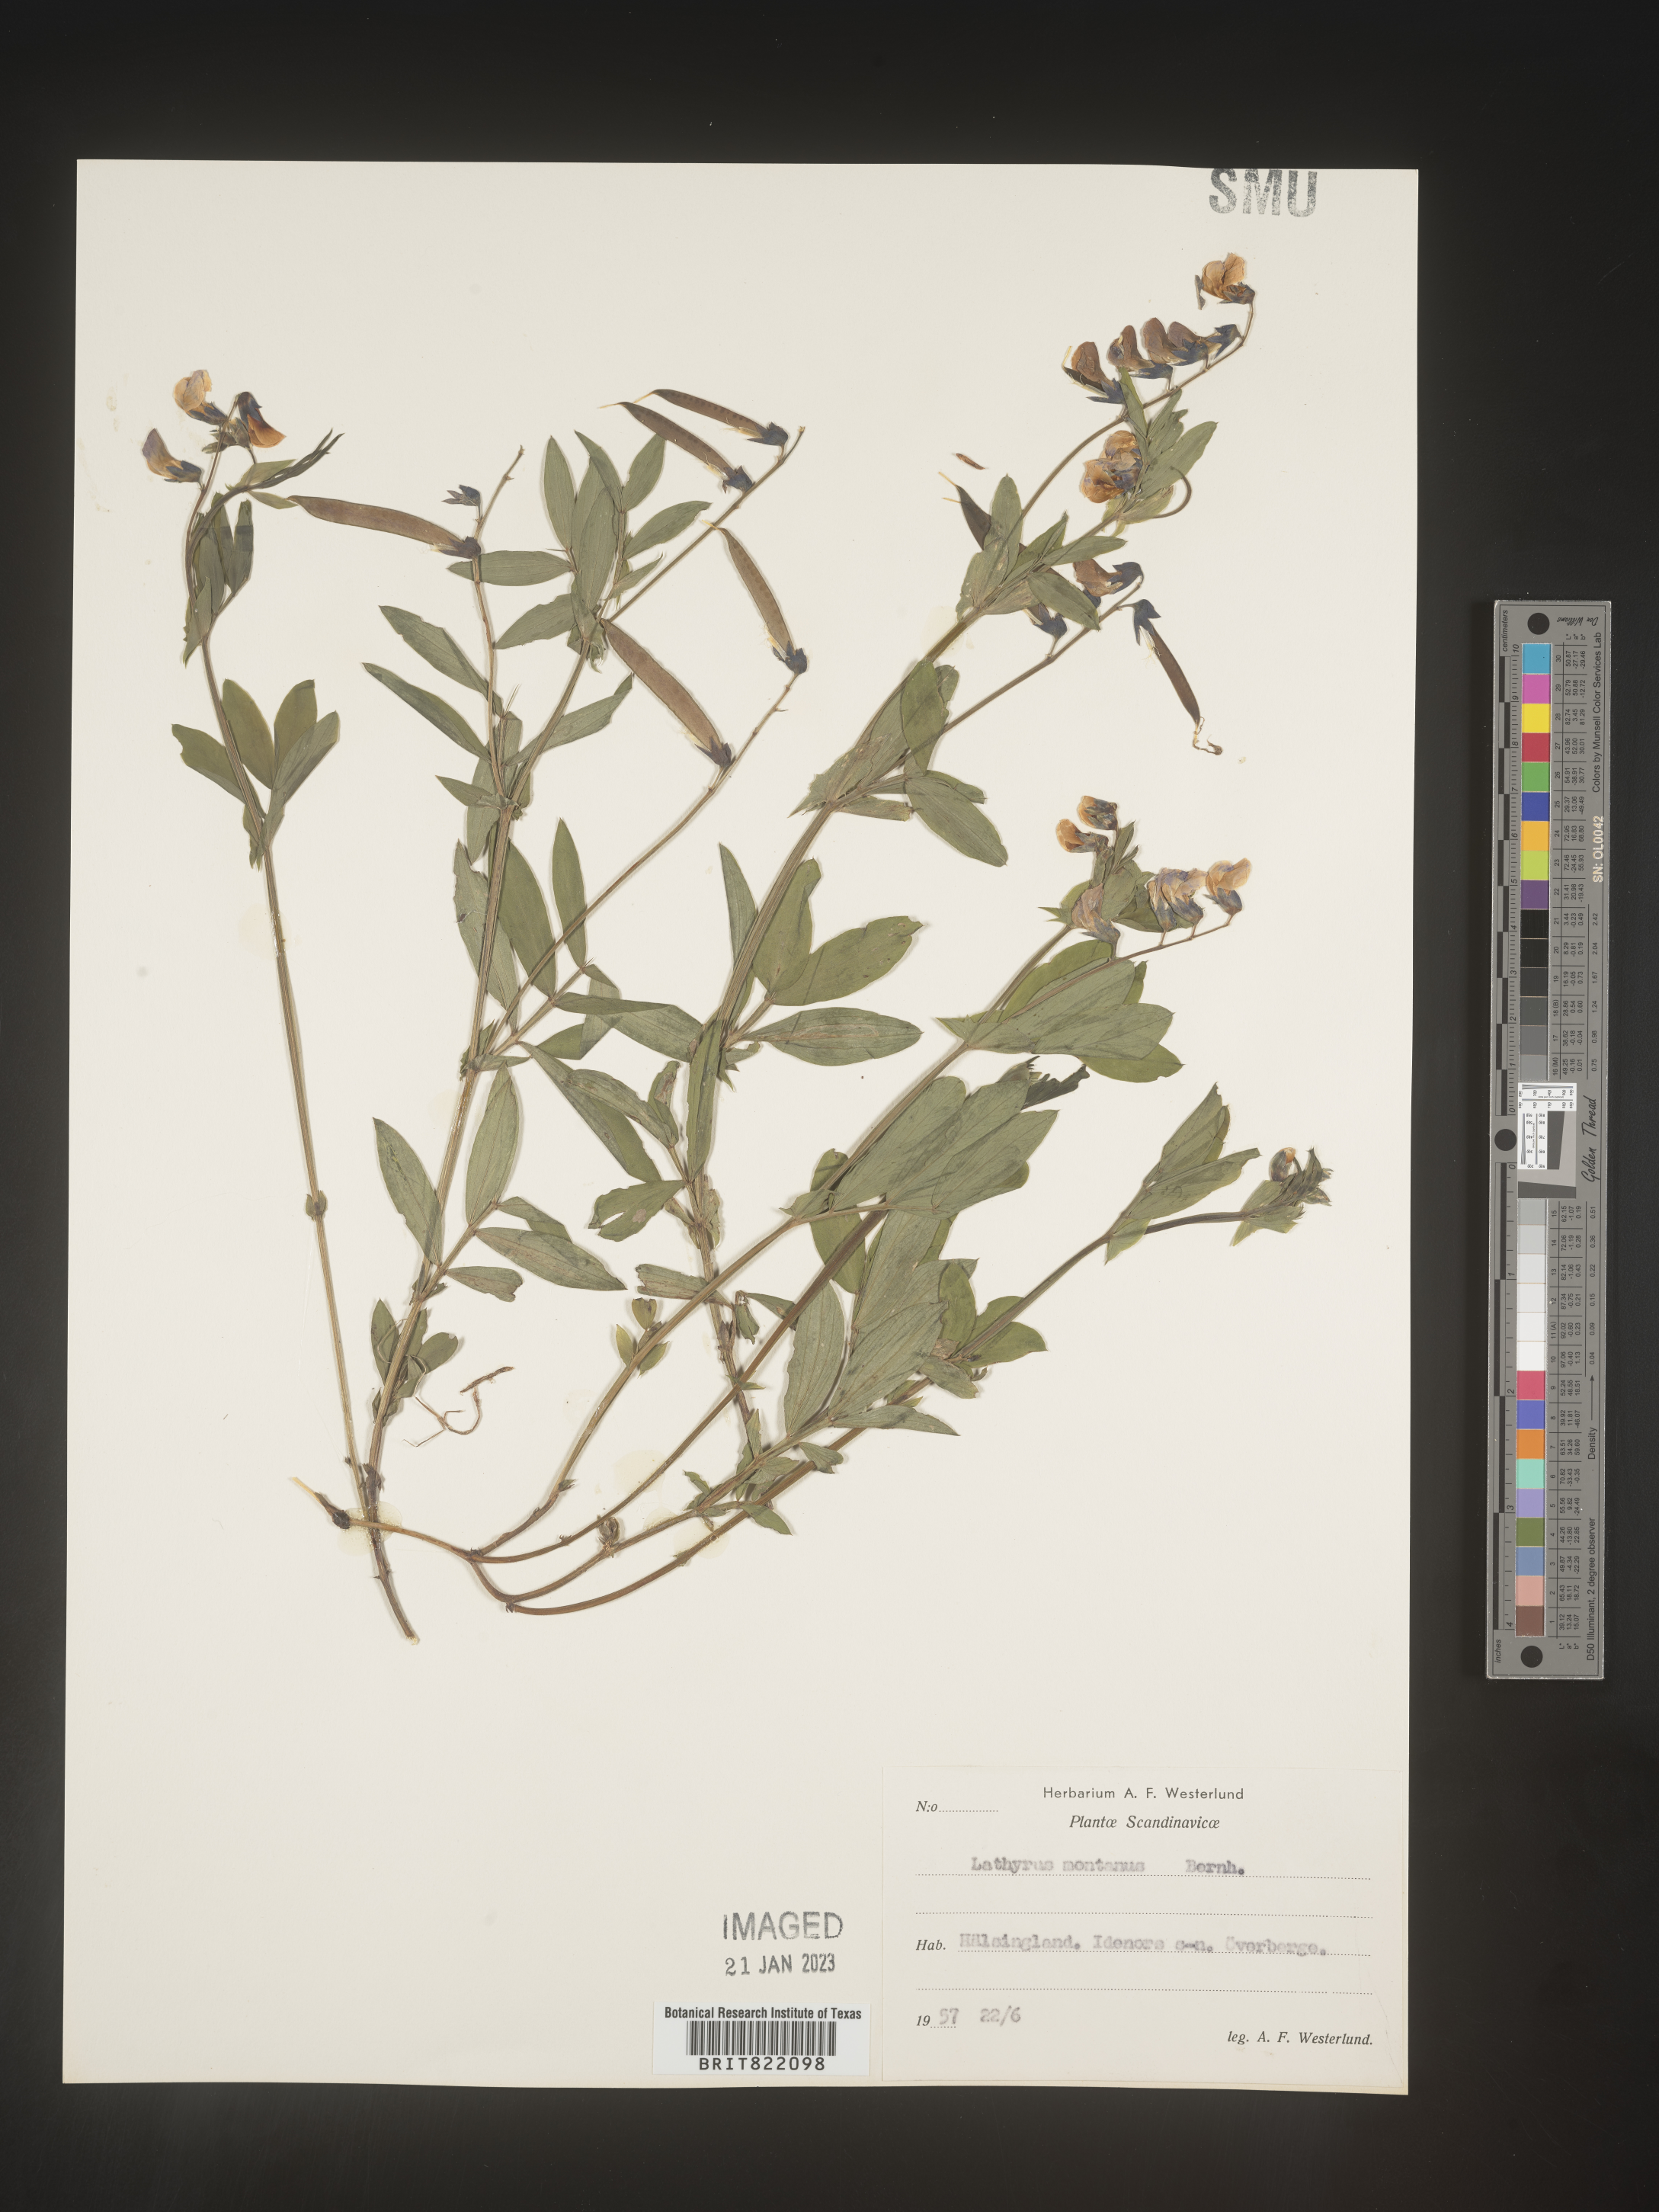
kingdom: Plantae
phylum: Tracheophyta
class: Magnoliopsida
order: Fabales
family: Fabaceae
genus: Lathyrus
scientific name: Lathyrus
